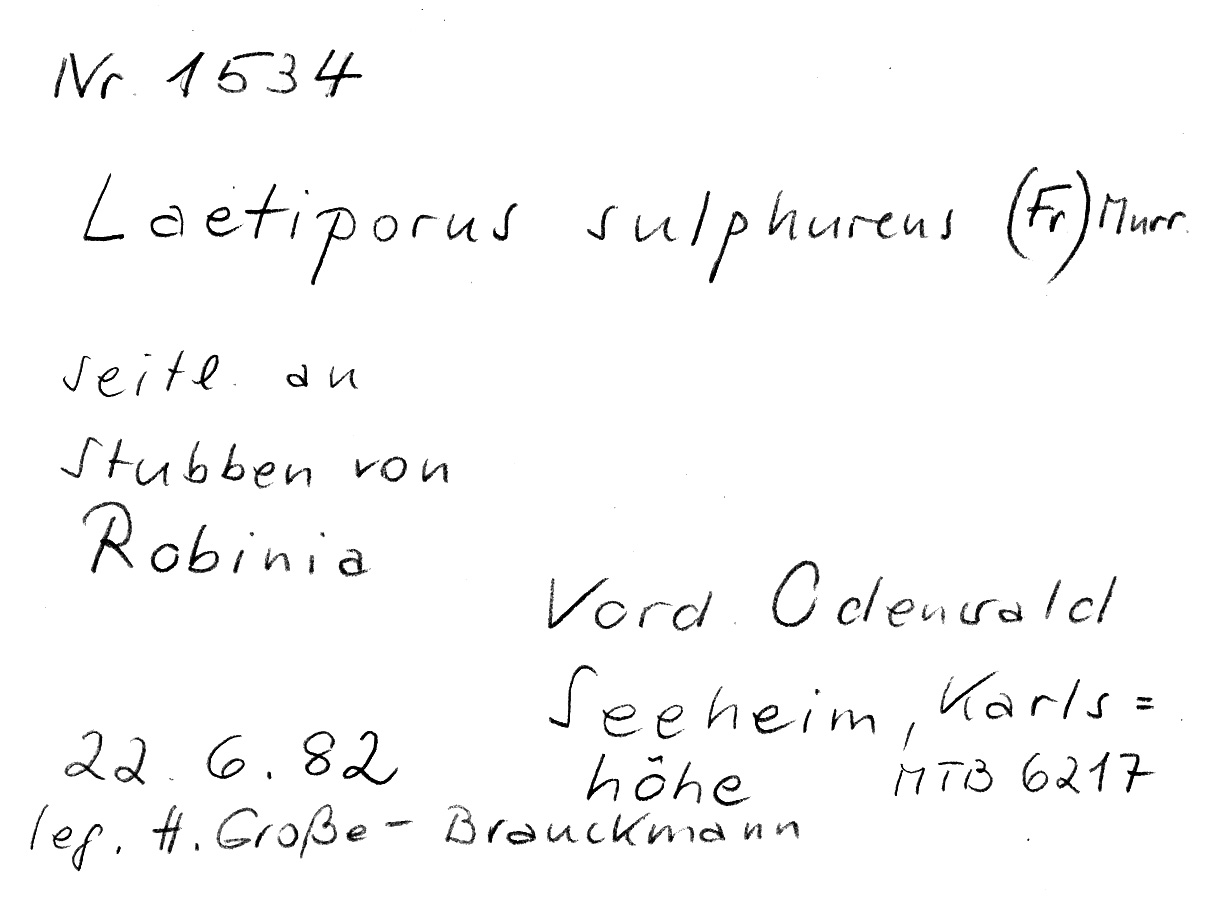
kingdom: Fungi
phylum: Basidiomycota
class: Agaricomycetes
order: Polyporales
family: Laetiporaceae
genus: Laetiporus
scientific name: Laetiporus sulphureus
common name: Chicken of the woods
